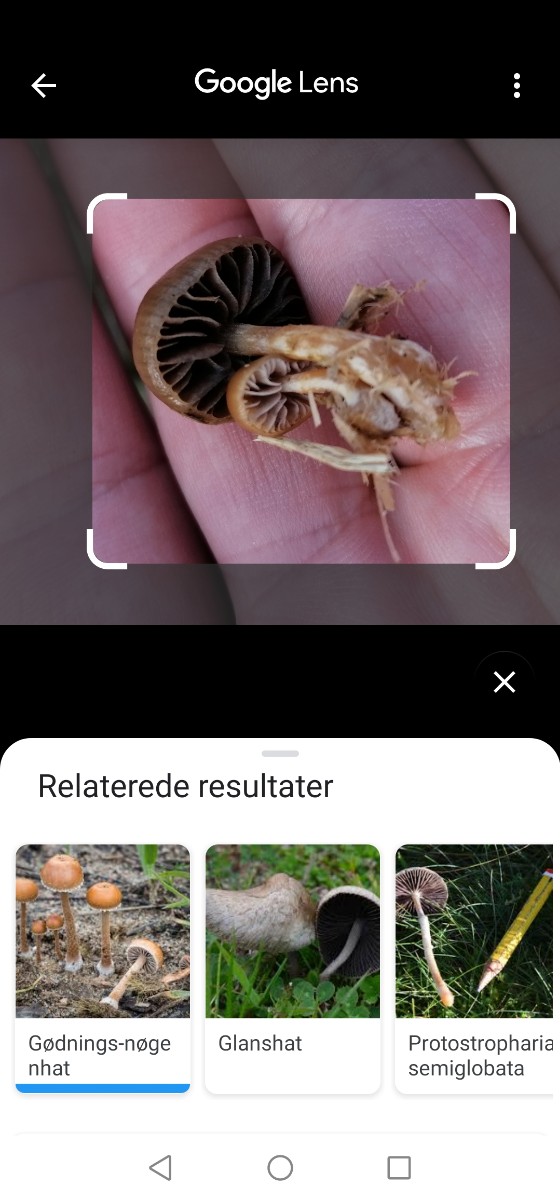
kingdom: Fungi
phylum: Basidiomycota
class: Agaricomycetes
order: Agaricales
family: Strophariaceae
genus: Deconica
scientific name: Deconica
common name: stråhat
